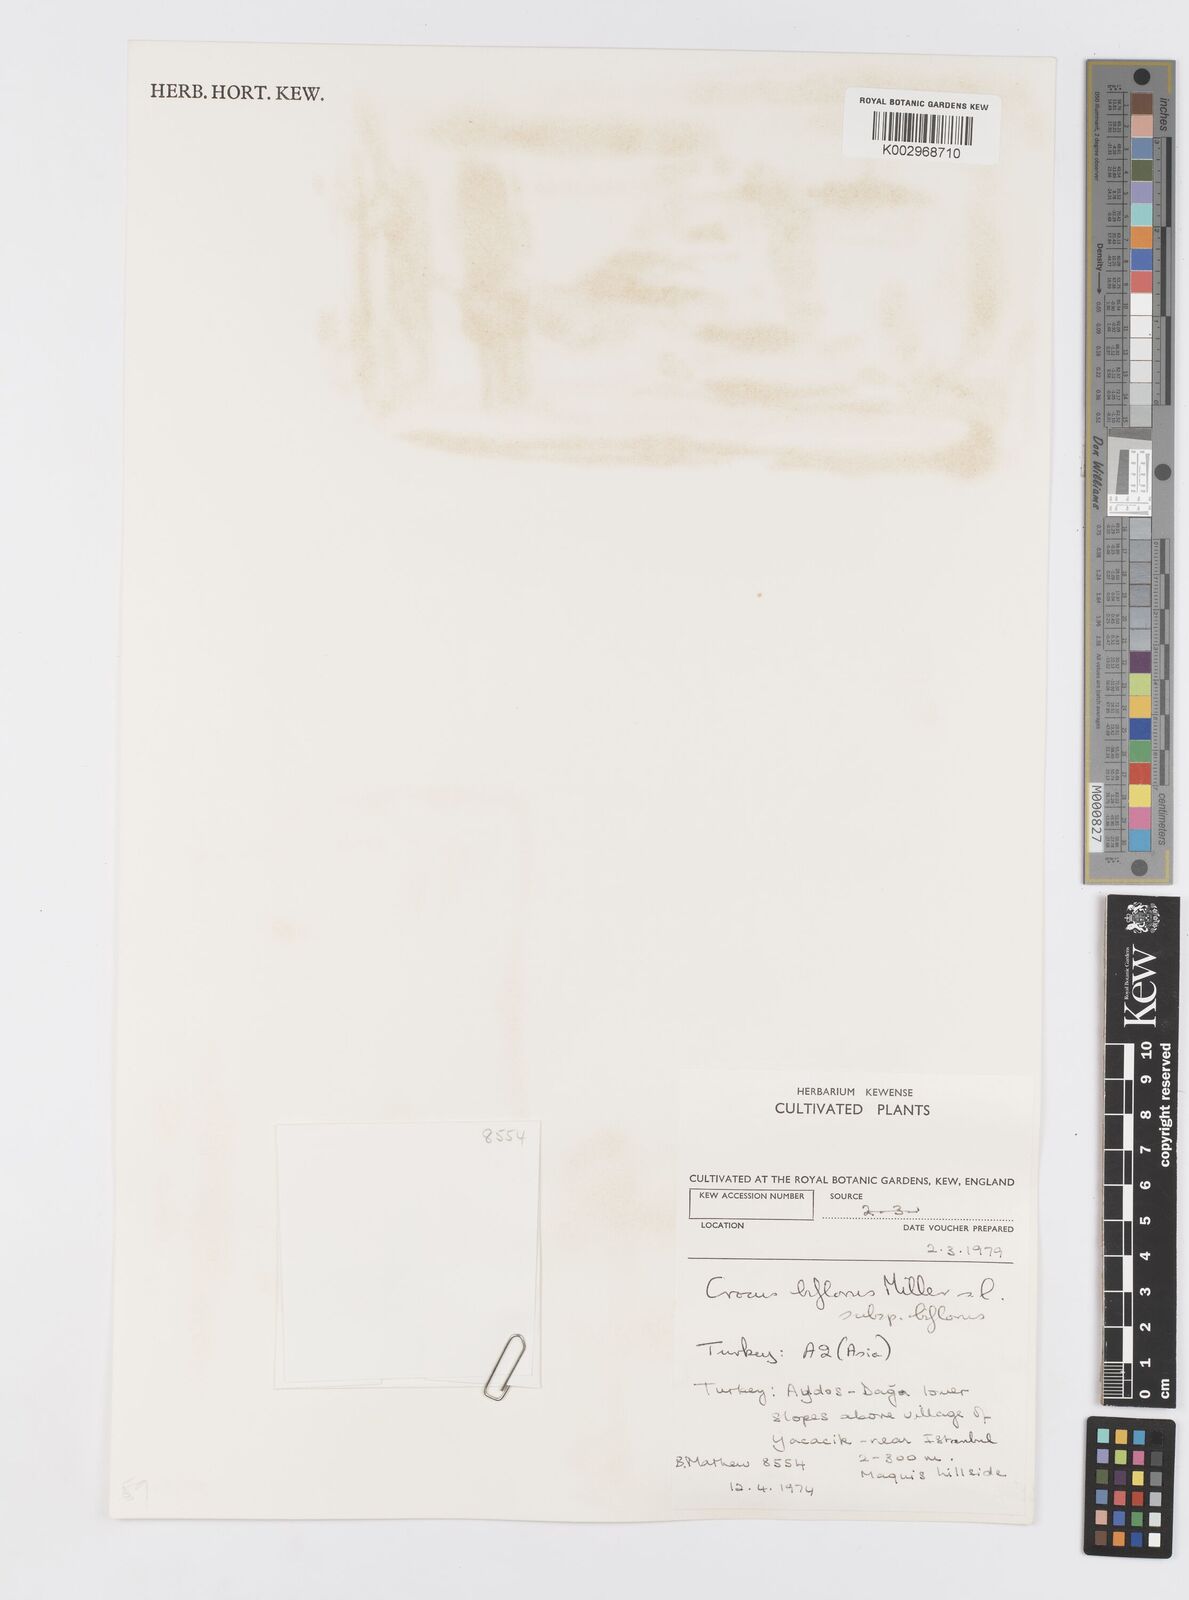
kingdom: Plantae
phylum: Tracheophyta
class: Liliopsida
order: Asparagales
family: Iridaceae
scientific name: Iridaceae
